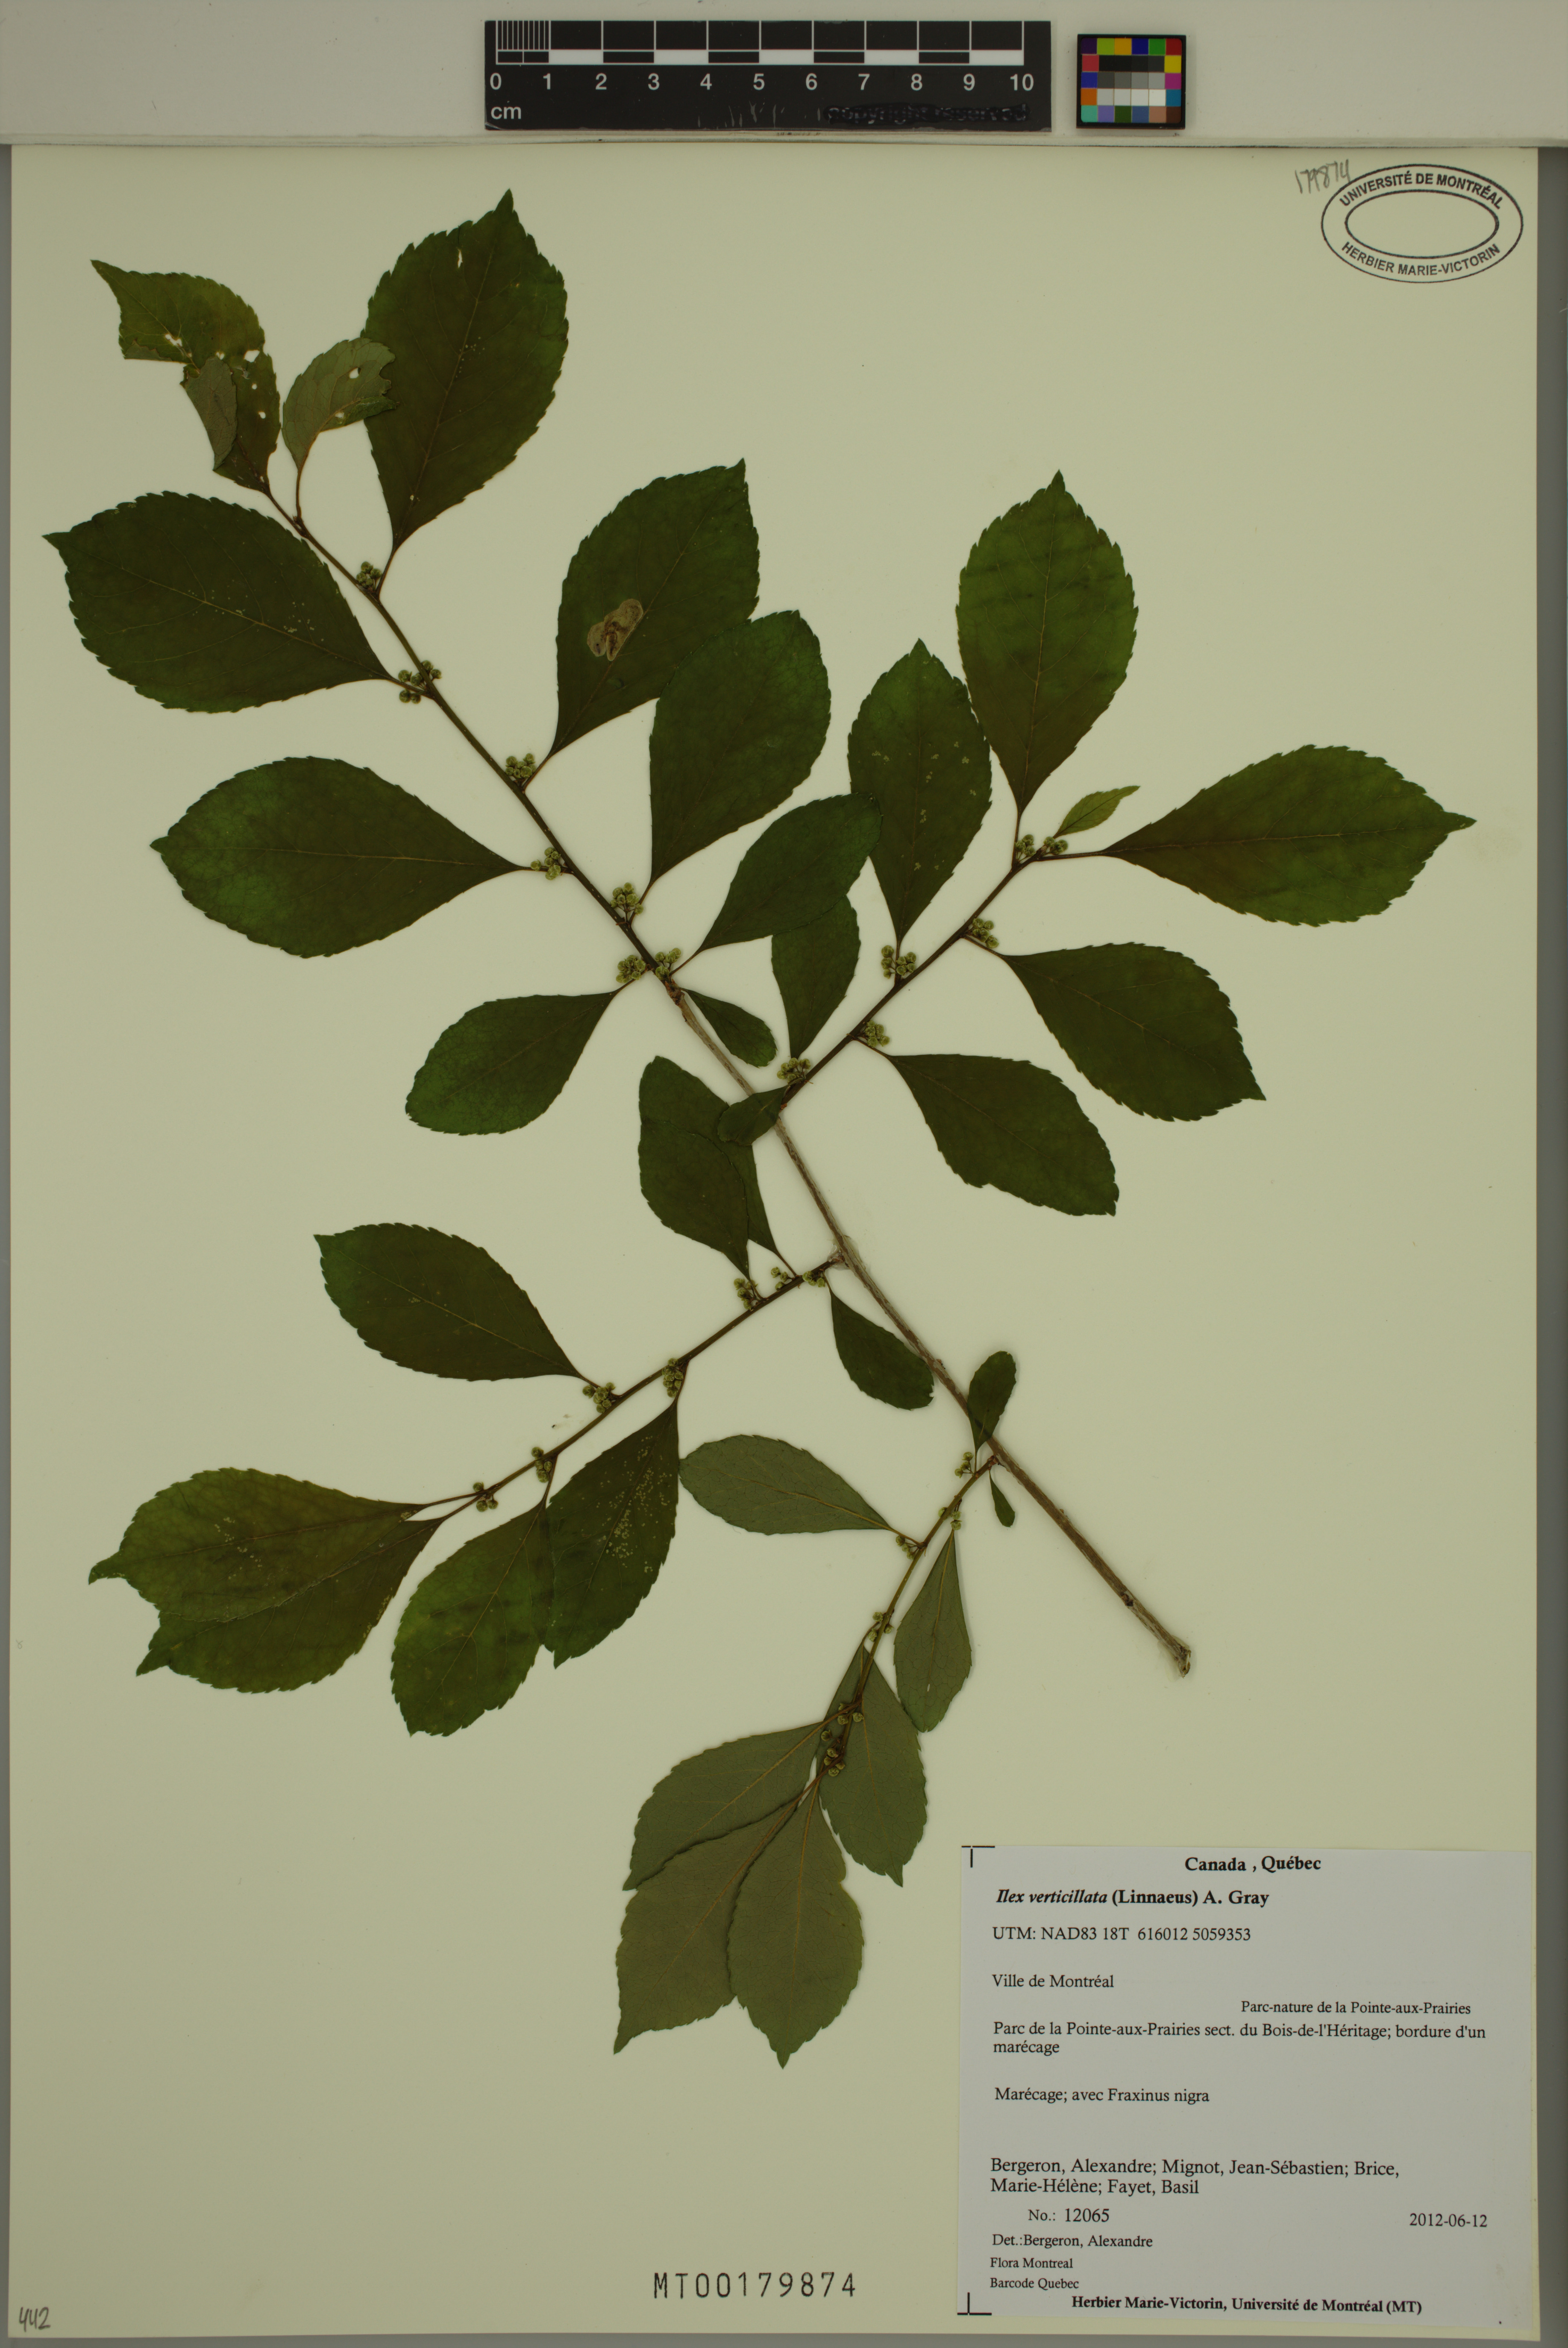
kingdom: Plantae
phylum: Tracheophyta
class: Magnoliopsida
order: Aquifoliales
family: Aquifoliaceae
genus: Ilex
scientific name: Ilex verticillata
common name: Virginia winterberry
